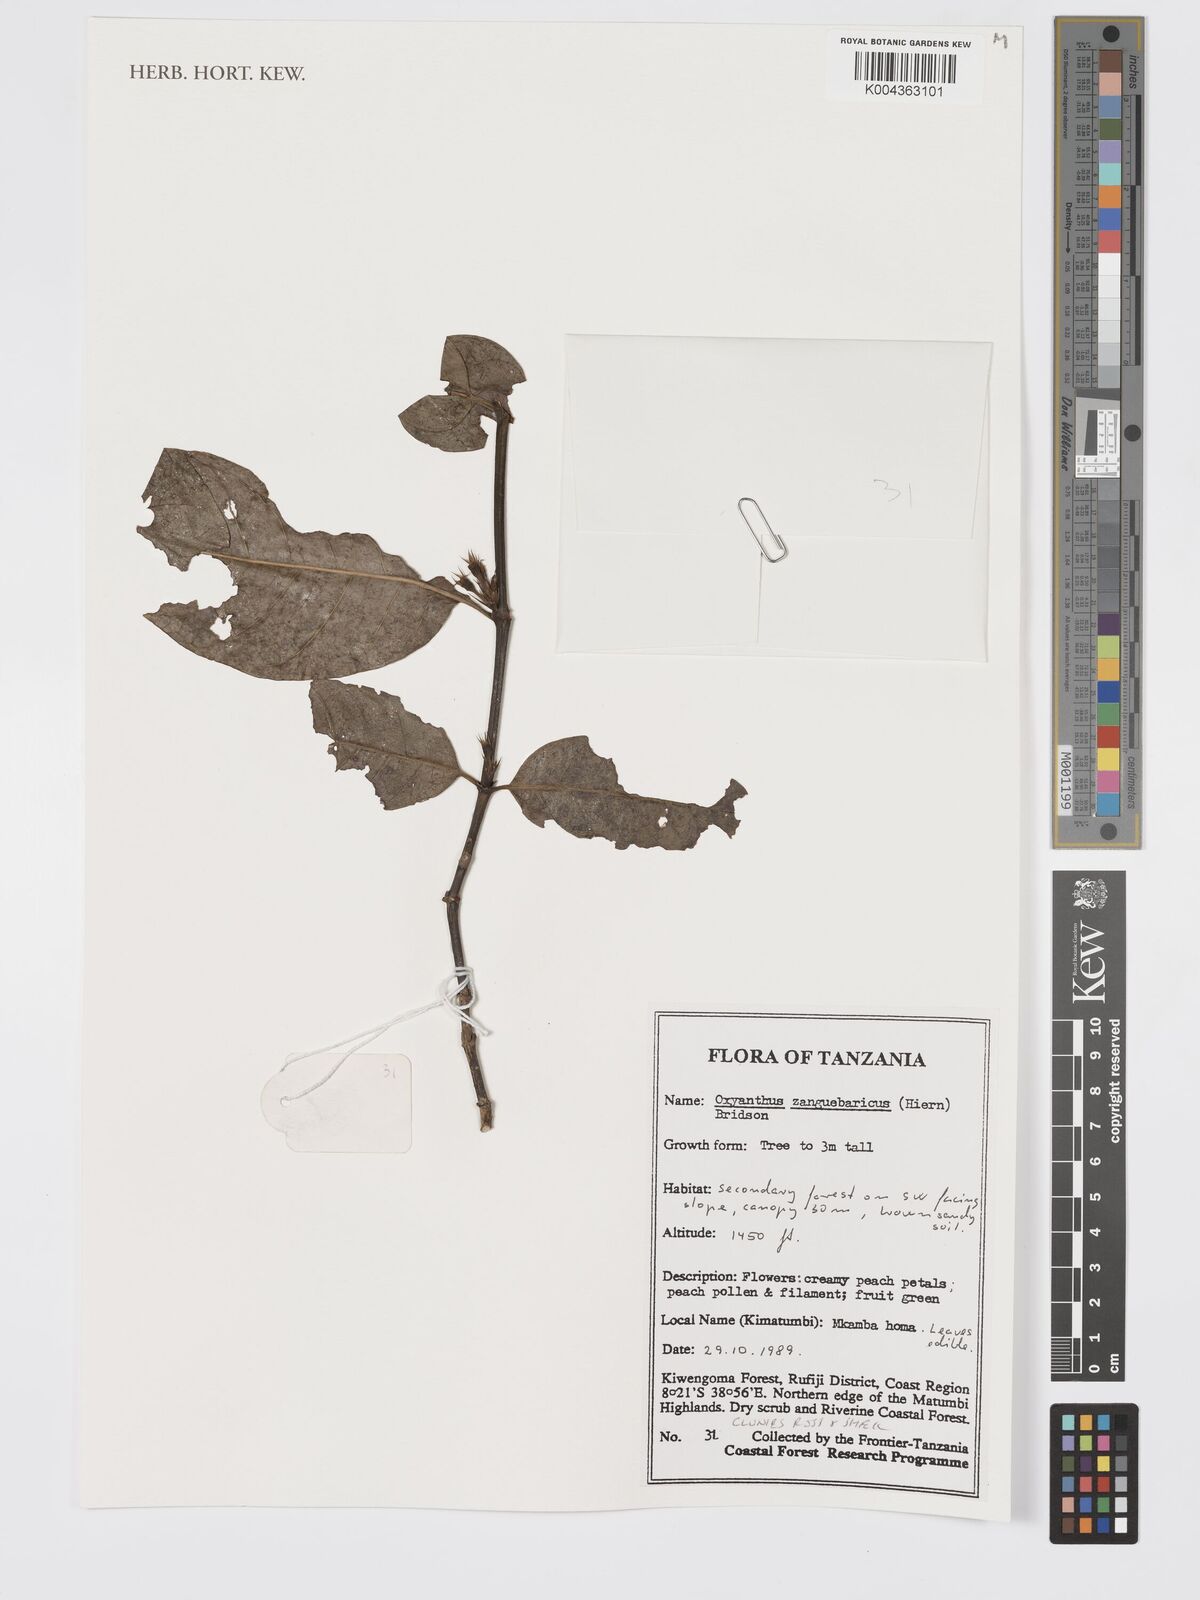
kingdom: Plantae
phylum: Tracheophyta
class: Magnoliopsida
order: Gentianales
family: Rubiaceae
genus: Oxyanthus
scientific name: Oxyanthus zanguebaricus
